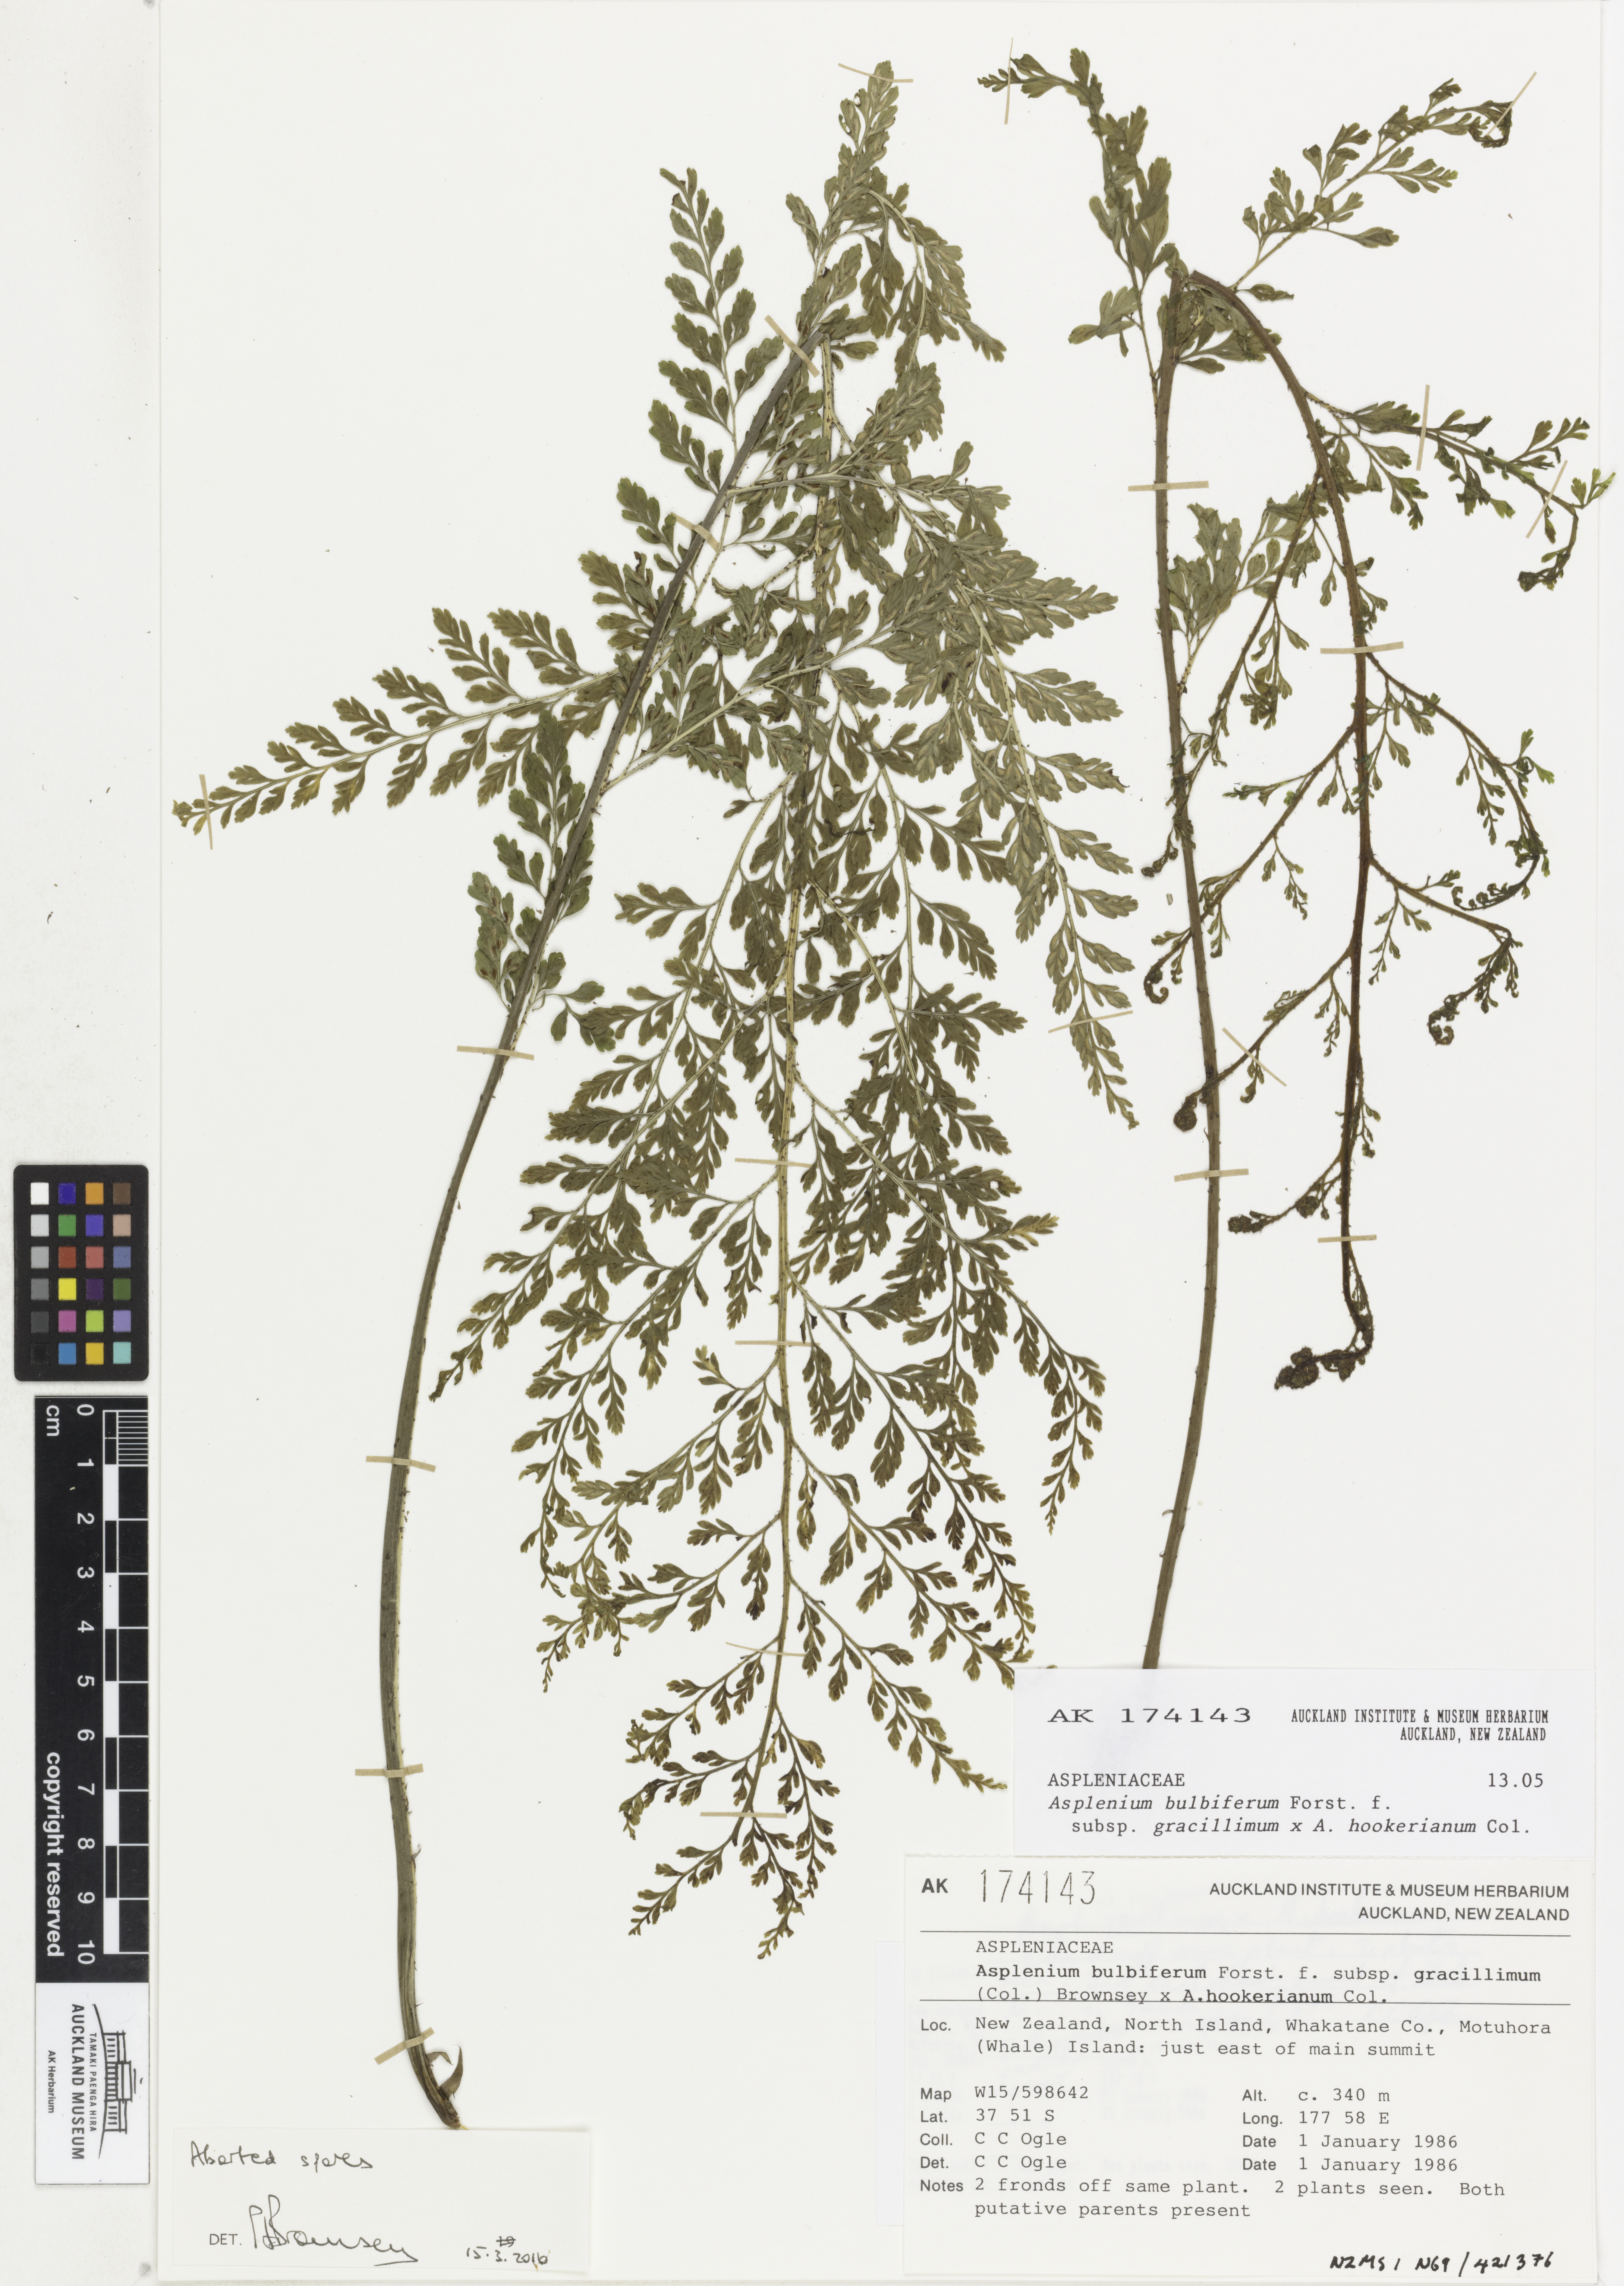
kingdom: Plantae
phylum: Tracheophyta
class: Polypodiopsida
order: Polypodiales
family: Aspleniaceae
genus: Asplenium
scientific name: Asplenium
